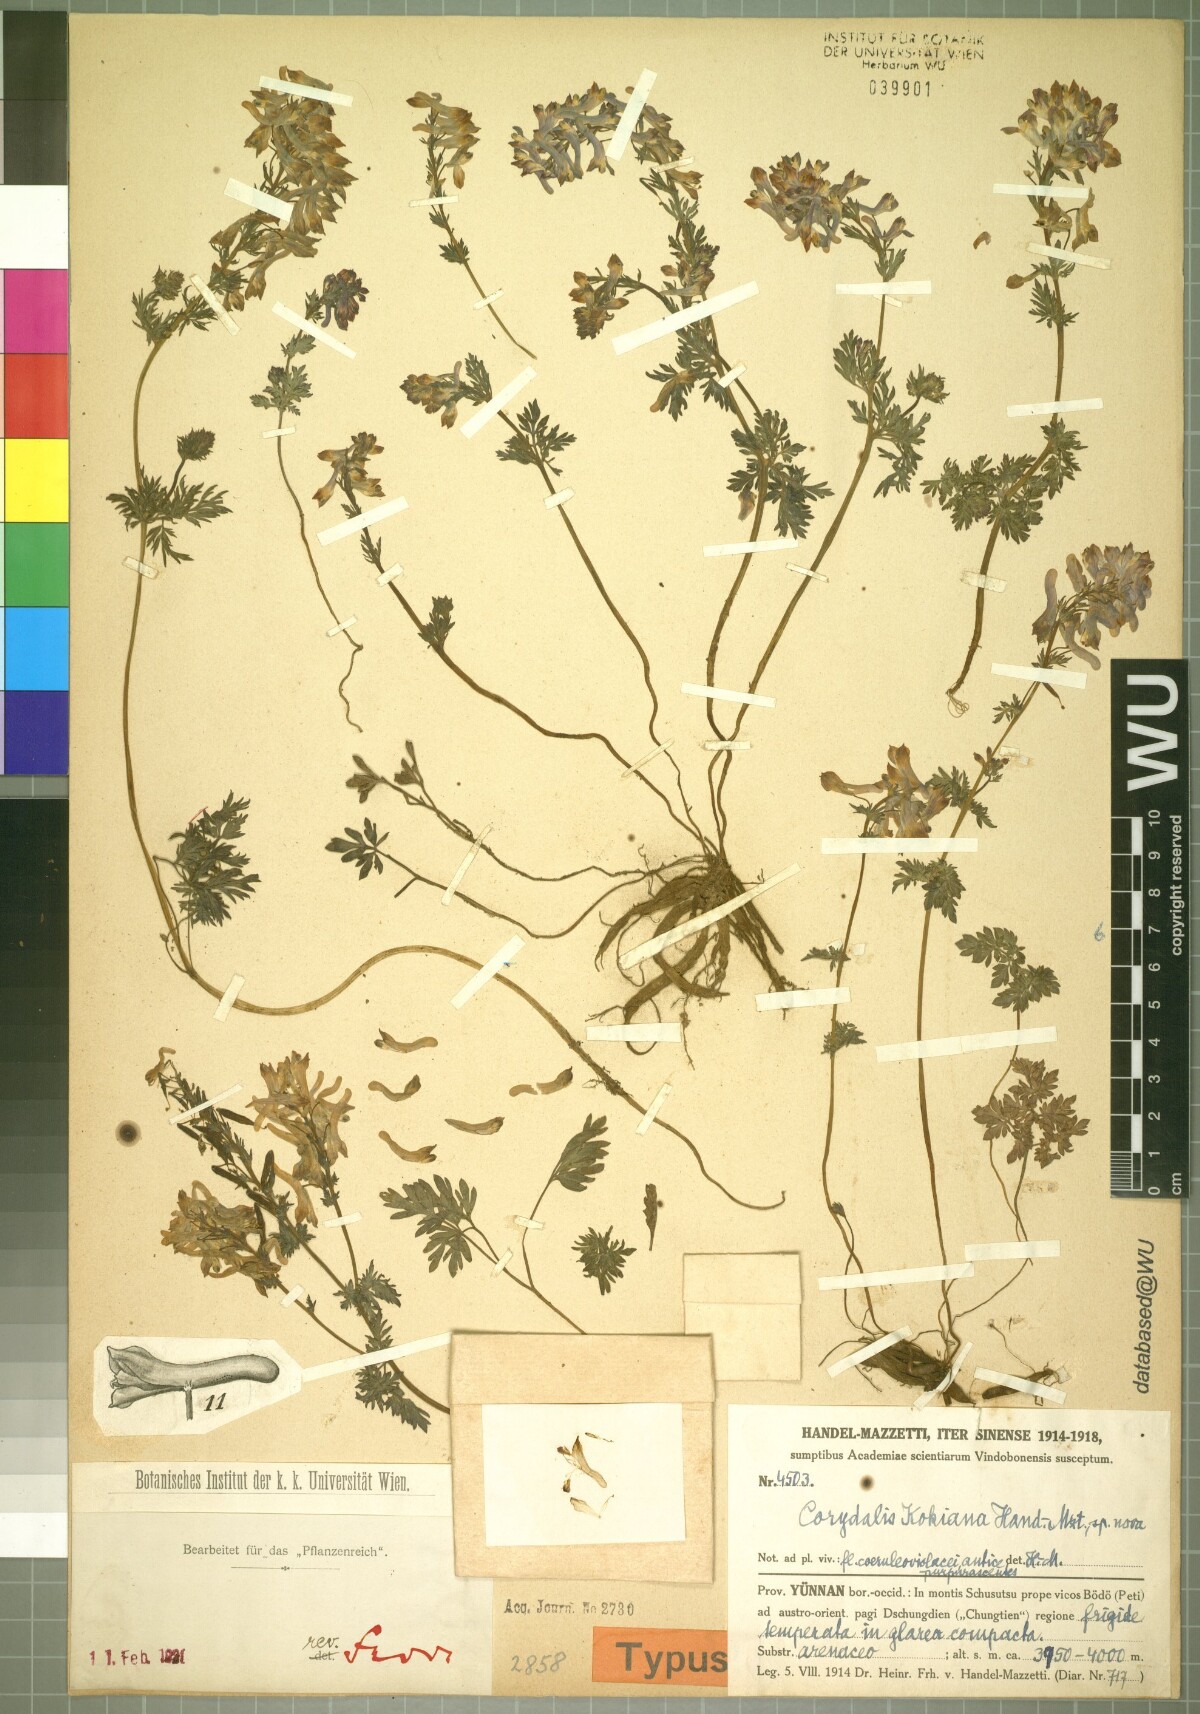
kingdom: Plantae
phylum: Tracheophyta
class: Magnoliopsida
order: Ranunculales
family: Papaveraceae
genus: Corydalis
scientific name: Corydalis kokiana
